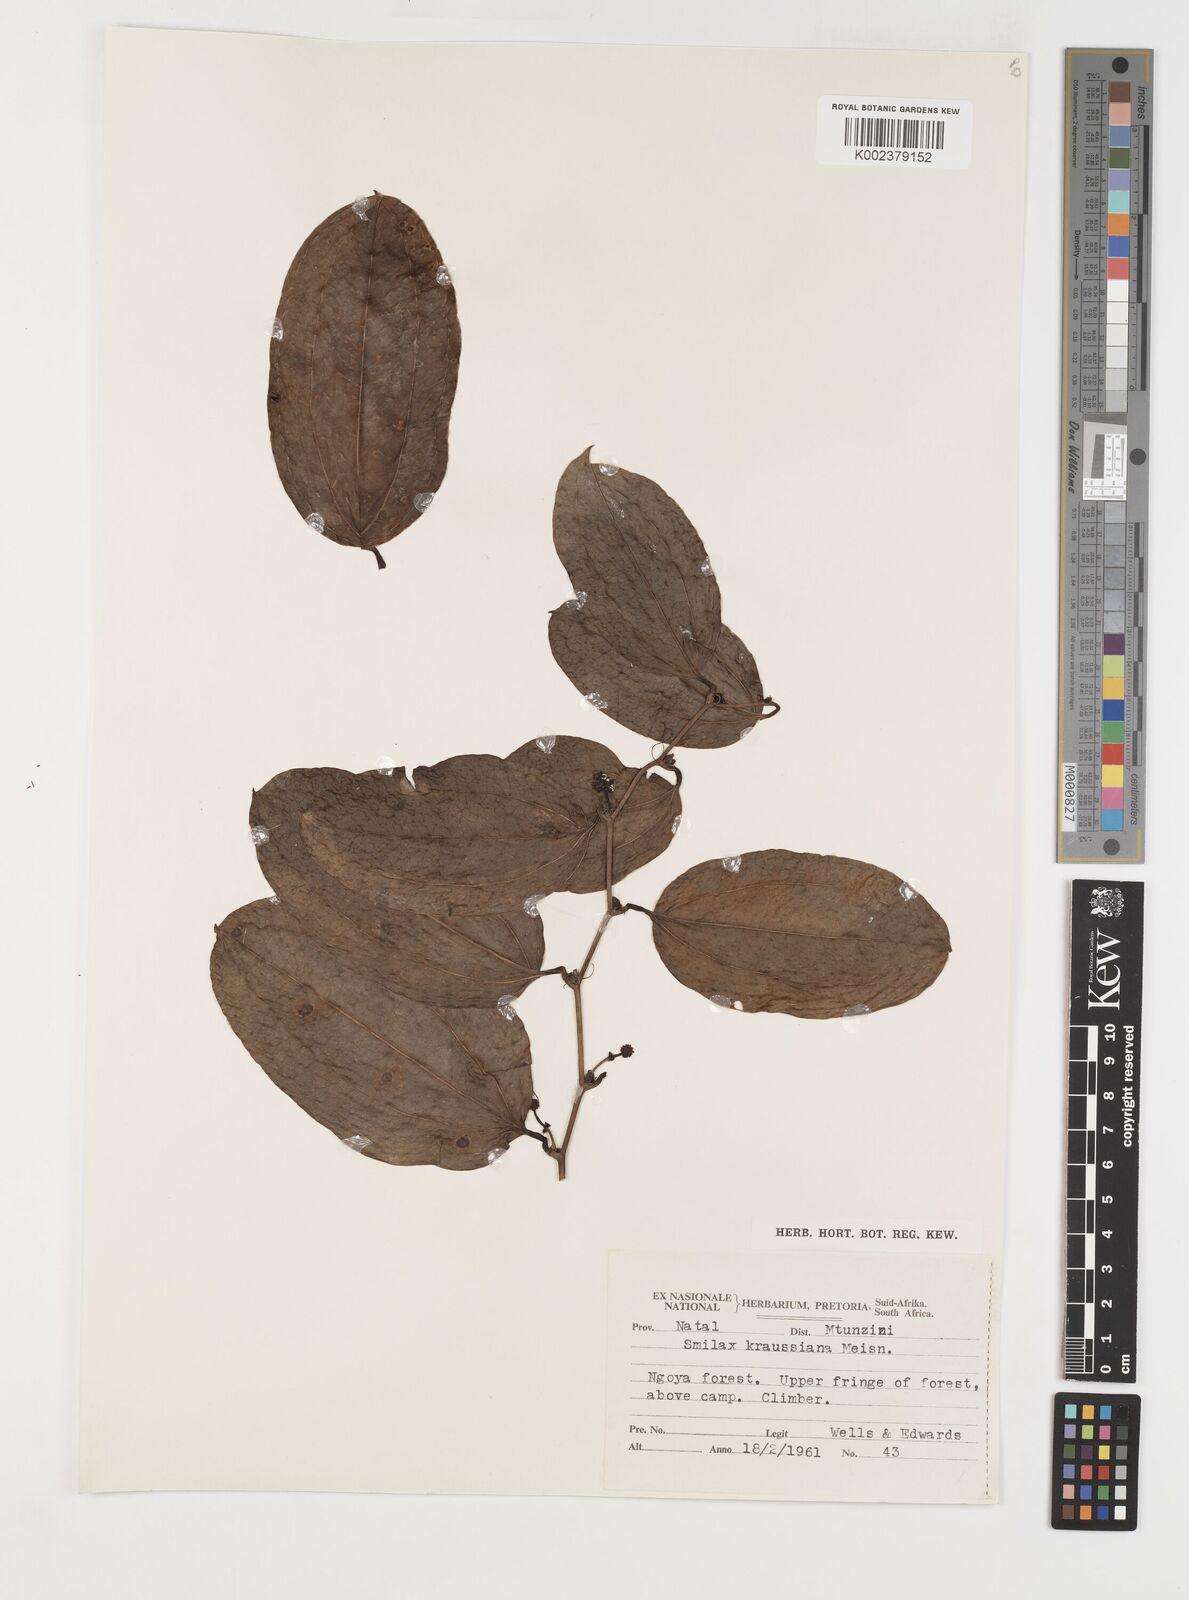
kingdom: Plantae
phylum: Tracheophyta
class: Liliopsida
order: Liliales
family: Smilacaceae
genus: Smilax
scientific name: Smilax anceps
